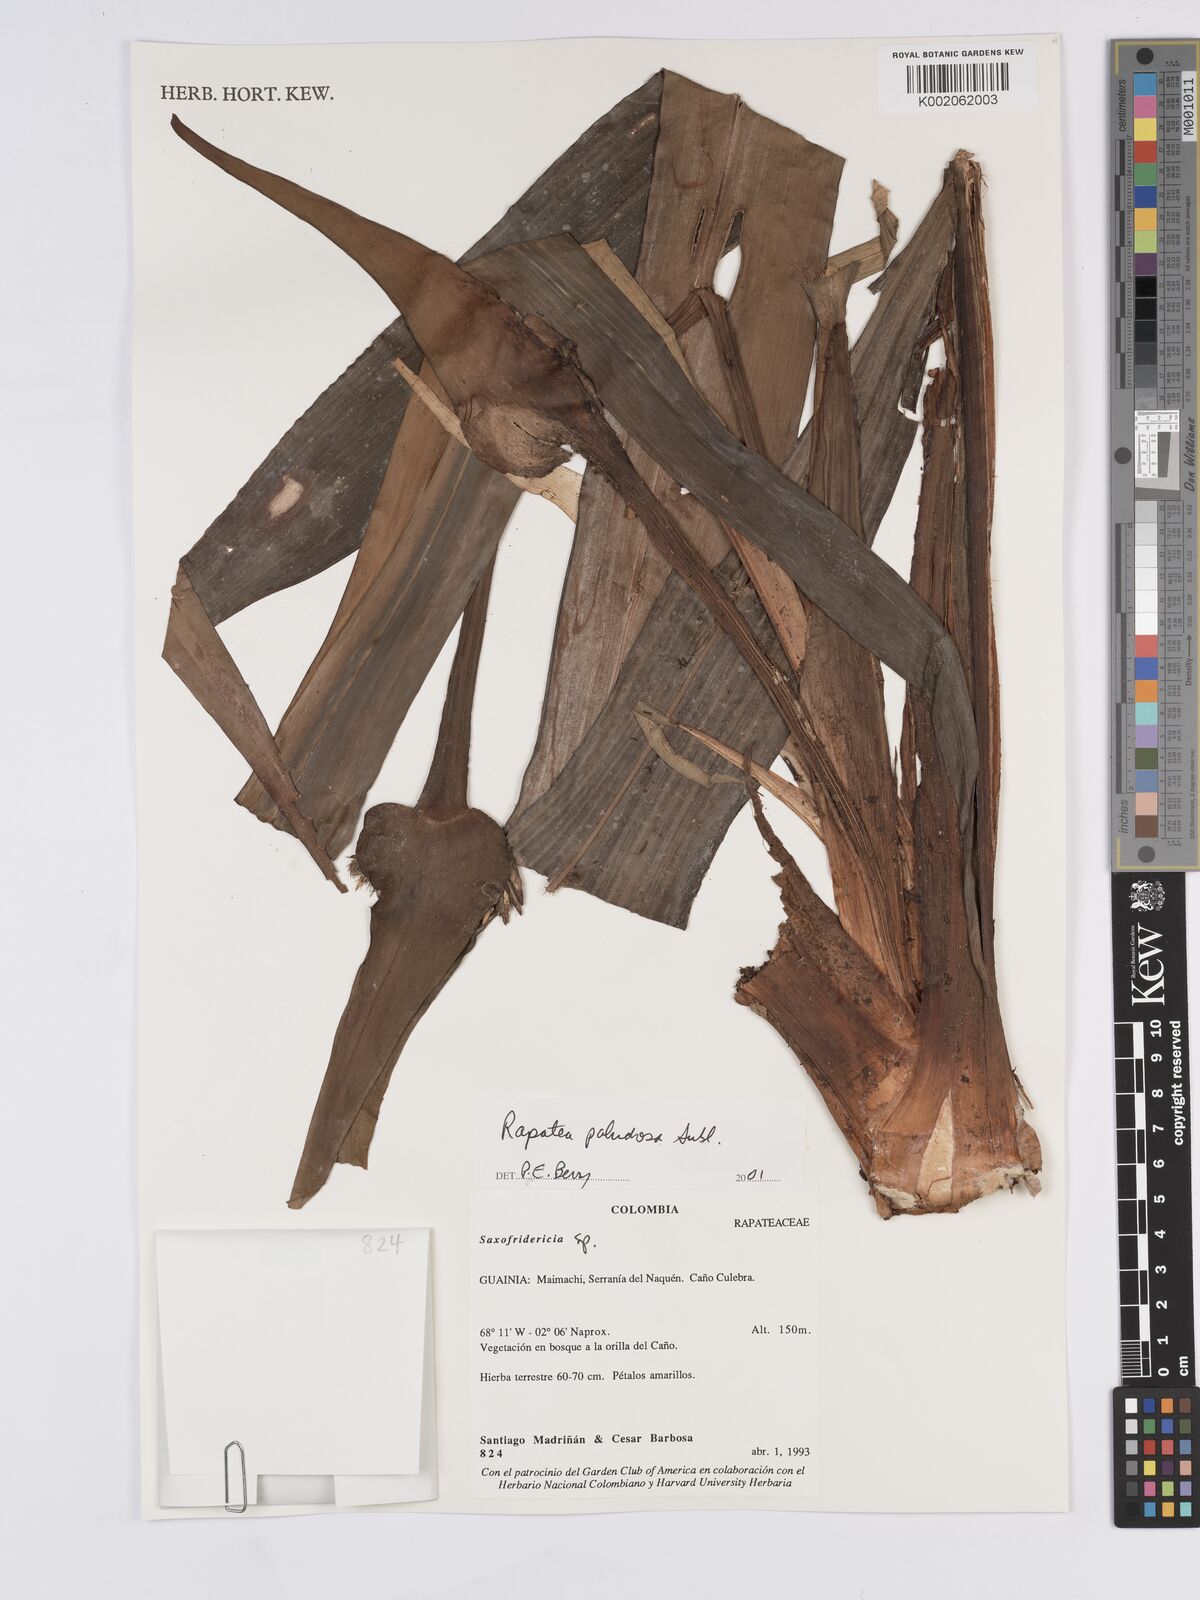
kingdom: Plantae
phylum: Tracheophyta
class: Liliopsida
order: Poales
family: Rapateaceae
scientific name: Rapateaceae
